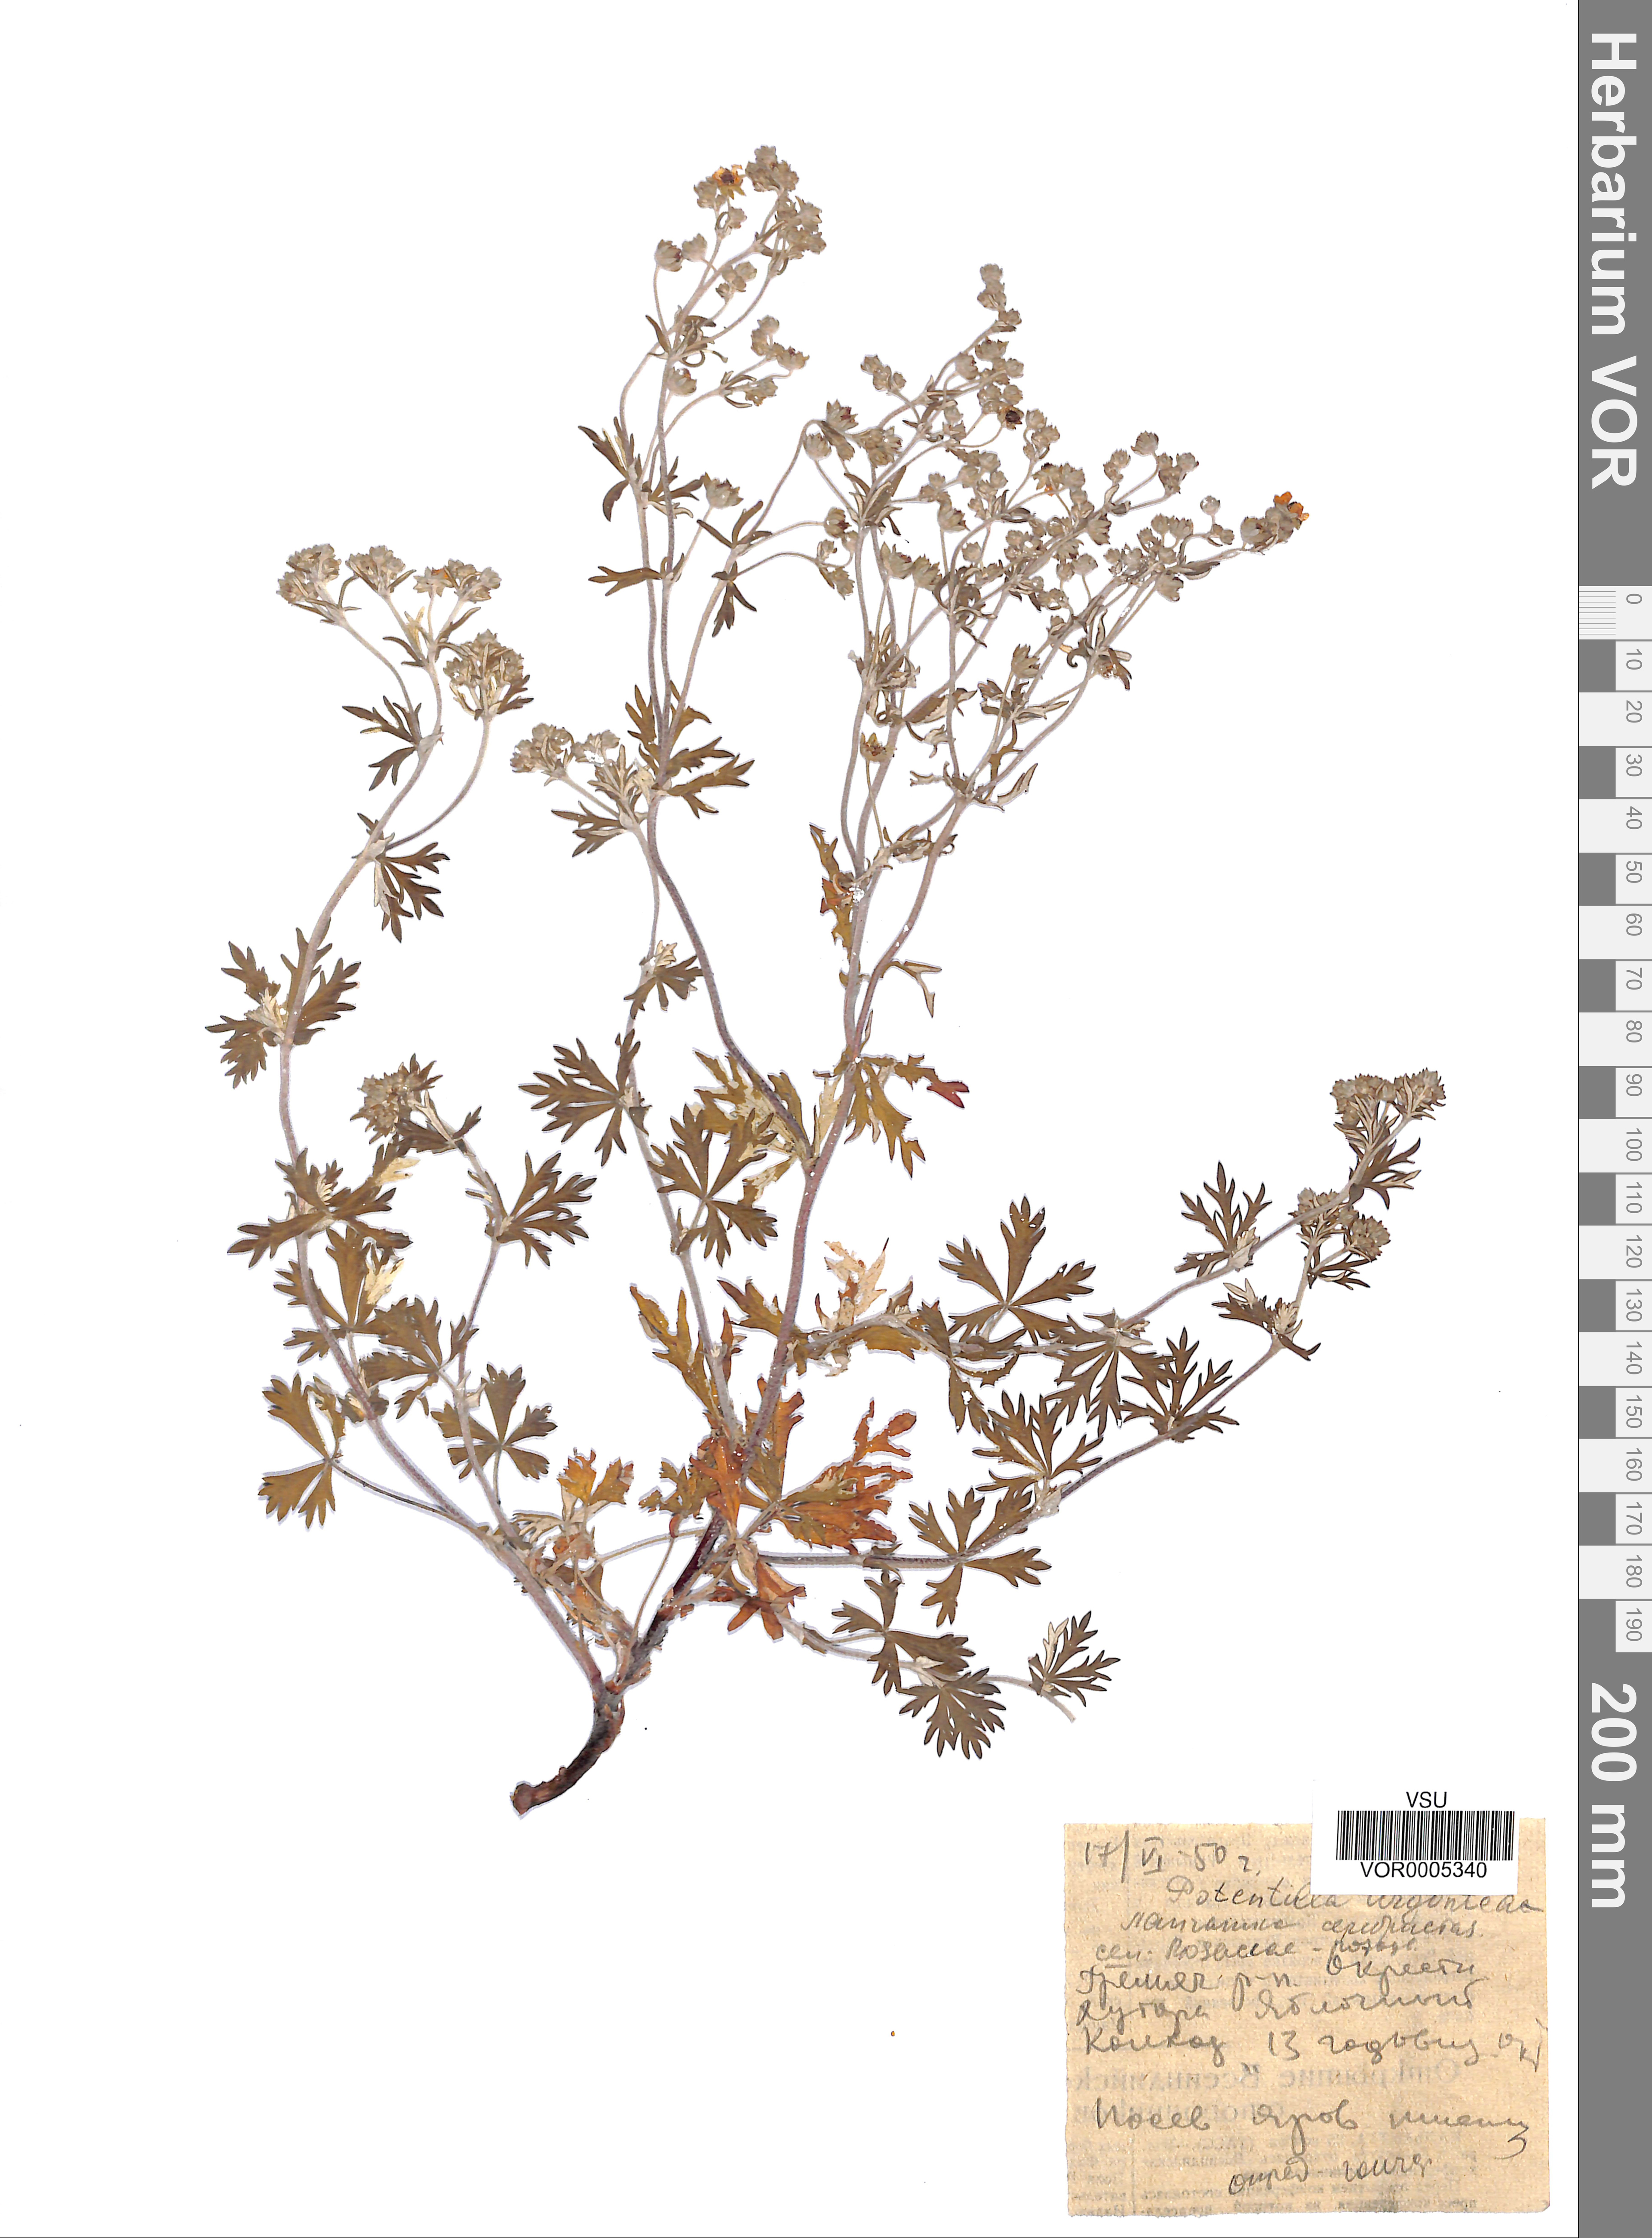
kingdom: Plantae
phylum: Tracheophyta
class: Magnoliopsida
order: Rosales
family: Rosaceae
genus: Potentilla
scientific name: Potentilla argentea
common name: Hoary cinquefoil
